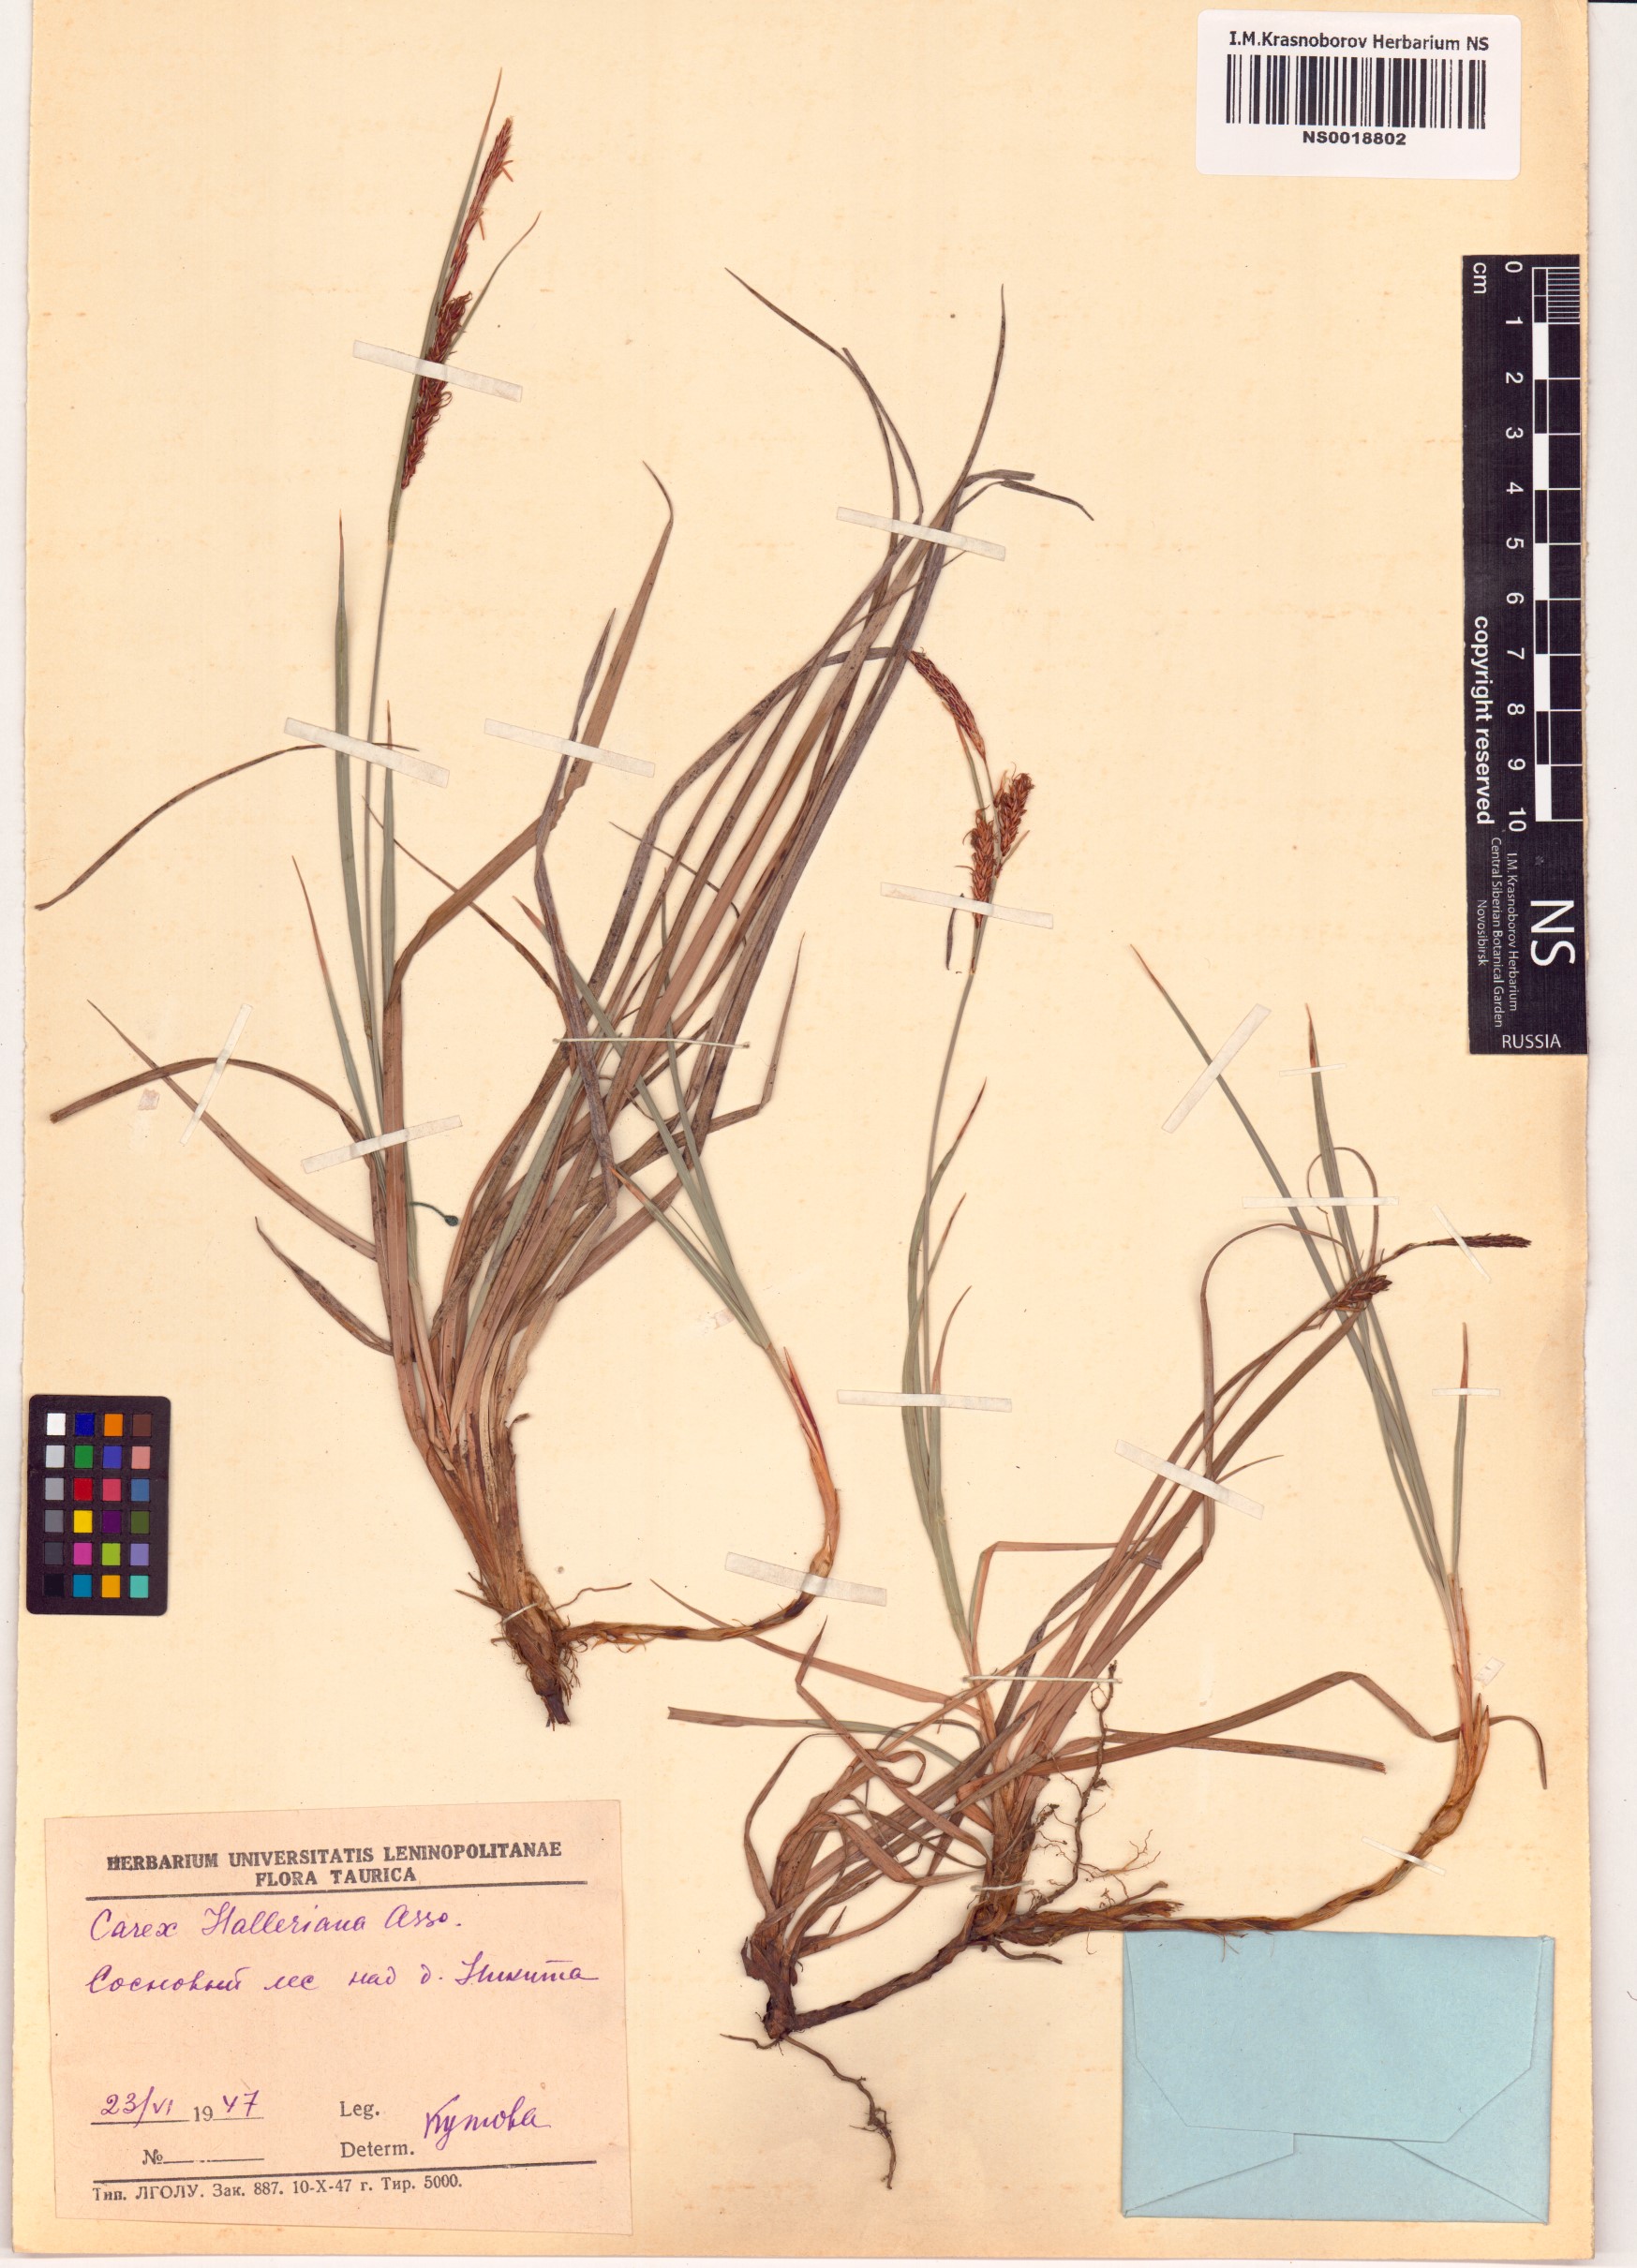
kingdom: Plantae
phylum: Tracheophyta
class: Liliopsida
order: Poales
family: Cyperaceae
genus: Carex
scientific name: Carex halleriana
